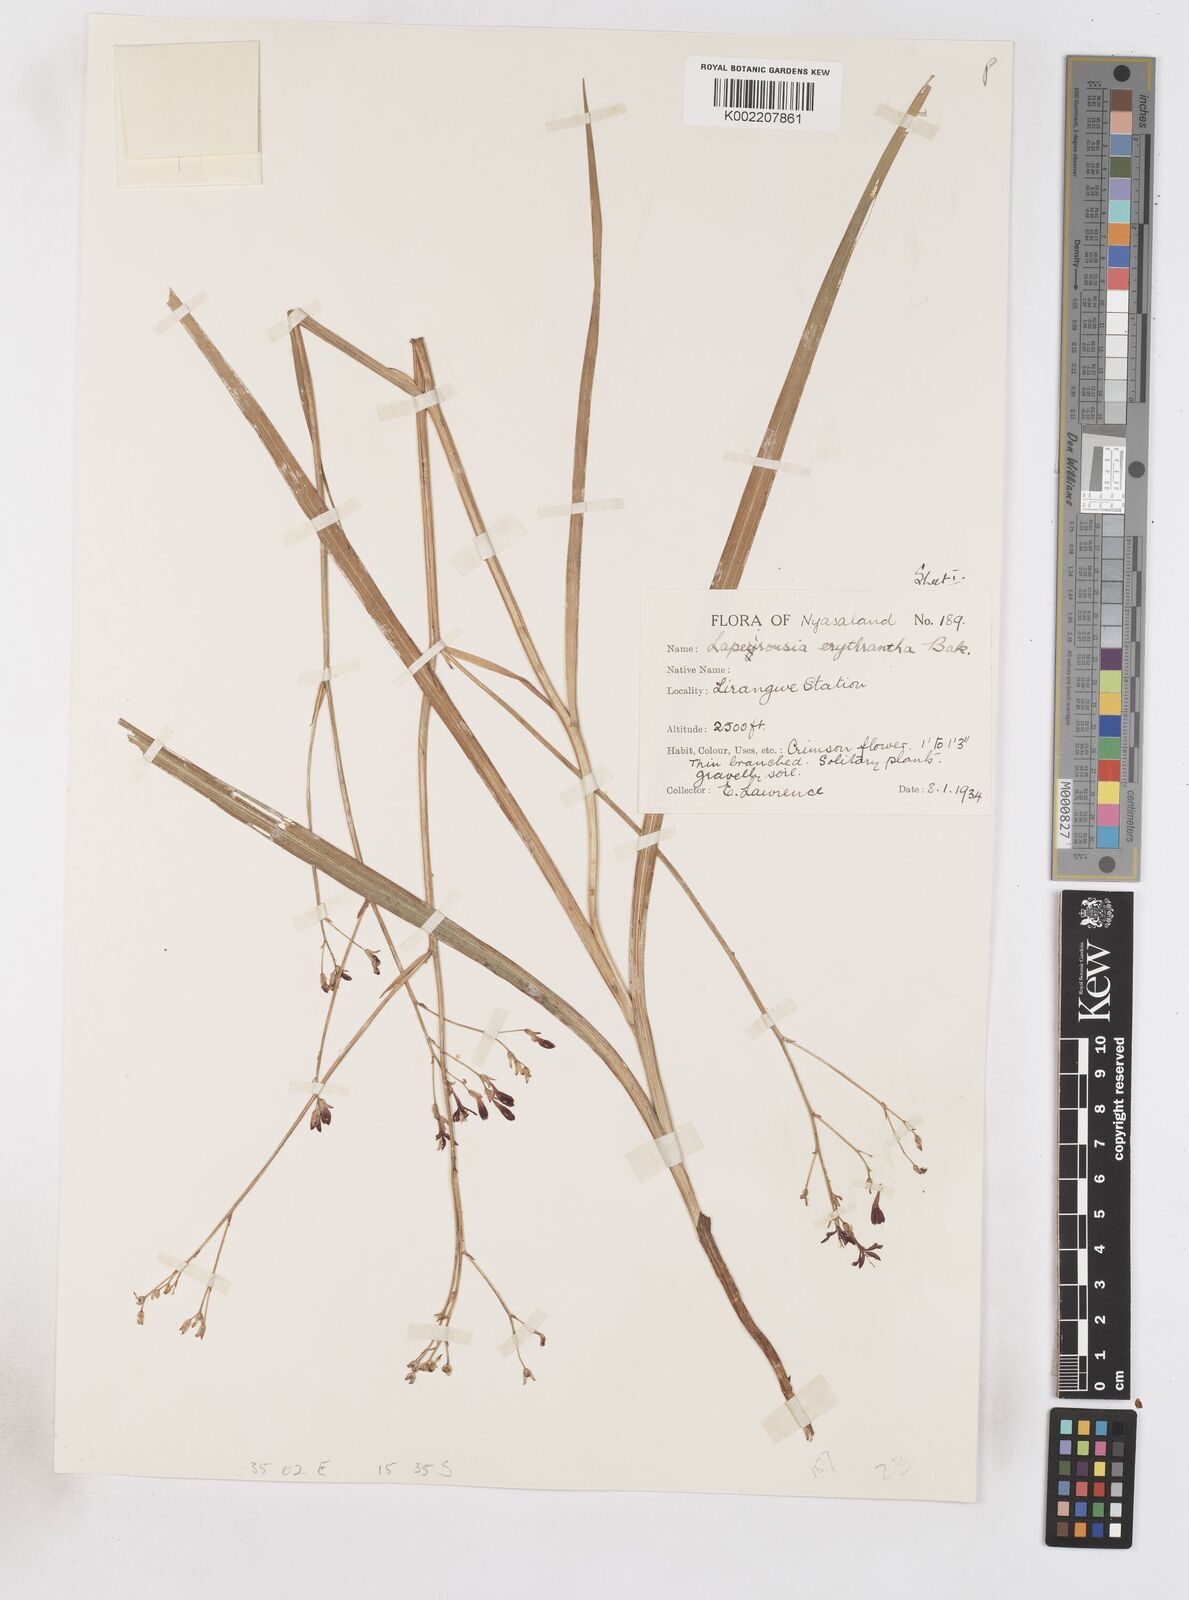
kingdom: Plantae
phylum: Tracheophyta
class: Liliopsida
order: Asparagales
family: Iridaceae
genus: Afrosolen
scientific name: Afrosolen erythranthus
